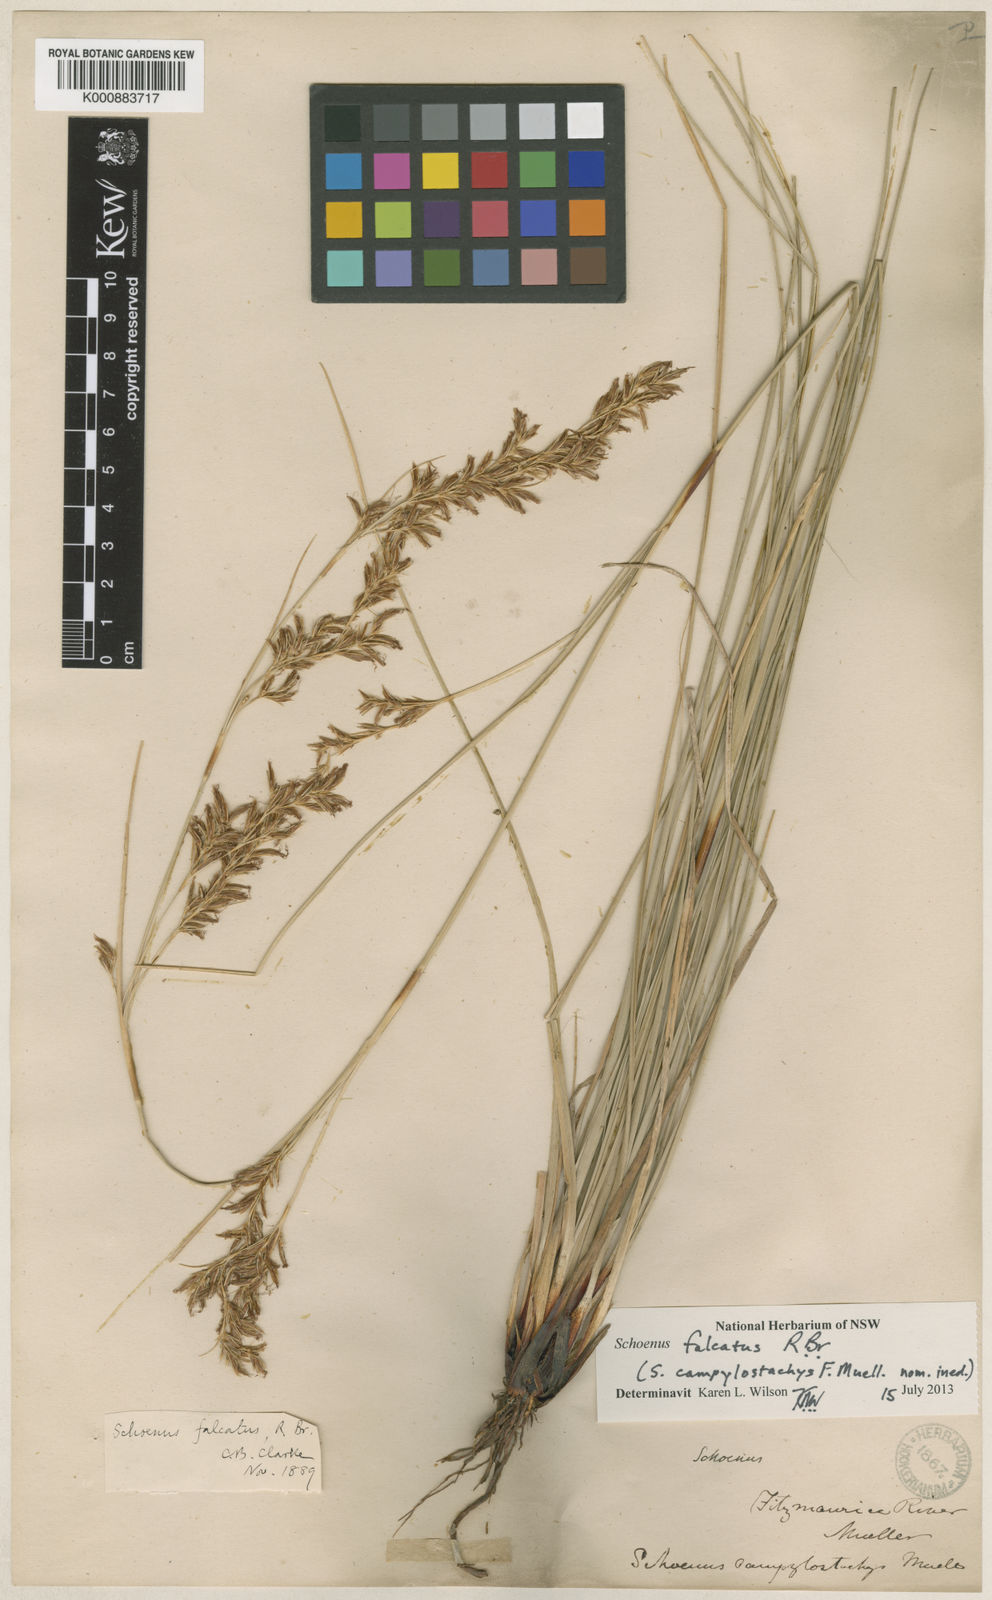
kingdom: Plantae
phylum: Tracheophyta
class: Liliopsida
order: Poales
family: Cyperaceae
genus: Schoenus
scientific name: Schoenus falcatus
